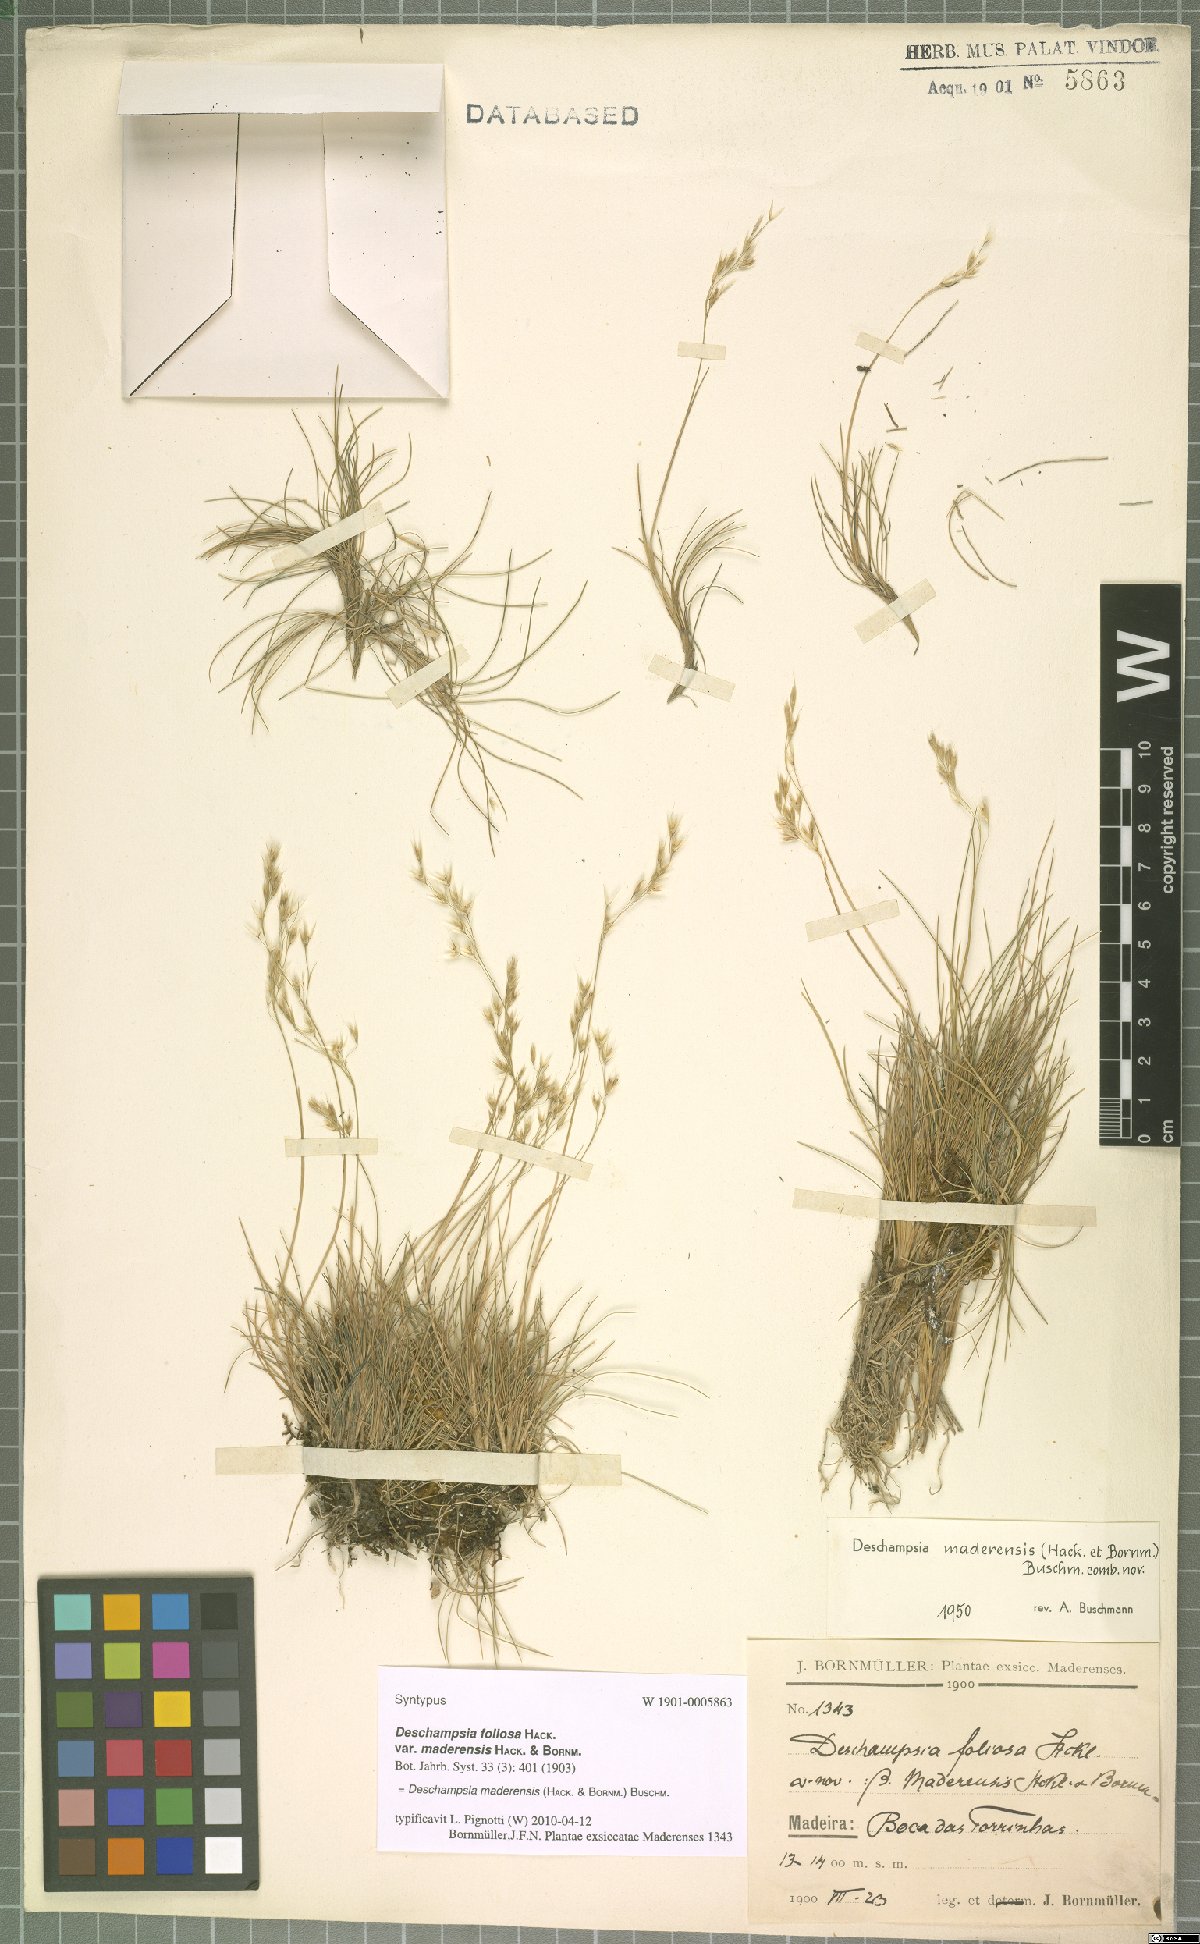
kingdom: Plantae
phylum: Tracheophyta
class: Liliopsida
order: Poales
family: Poaceae
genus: Avenella
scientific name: Avenella flexuosa
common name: Wavy hairgrass
